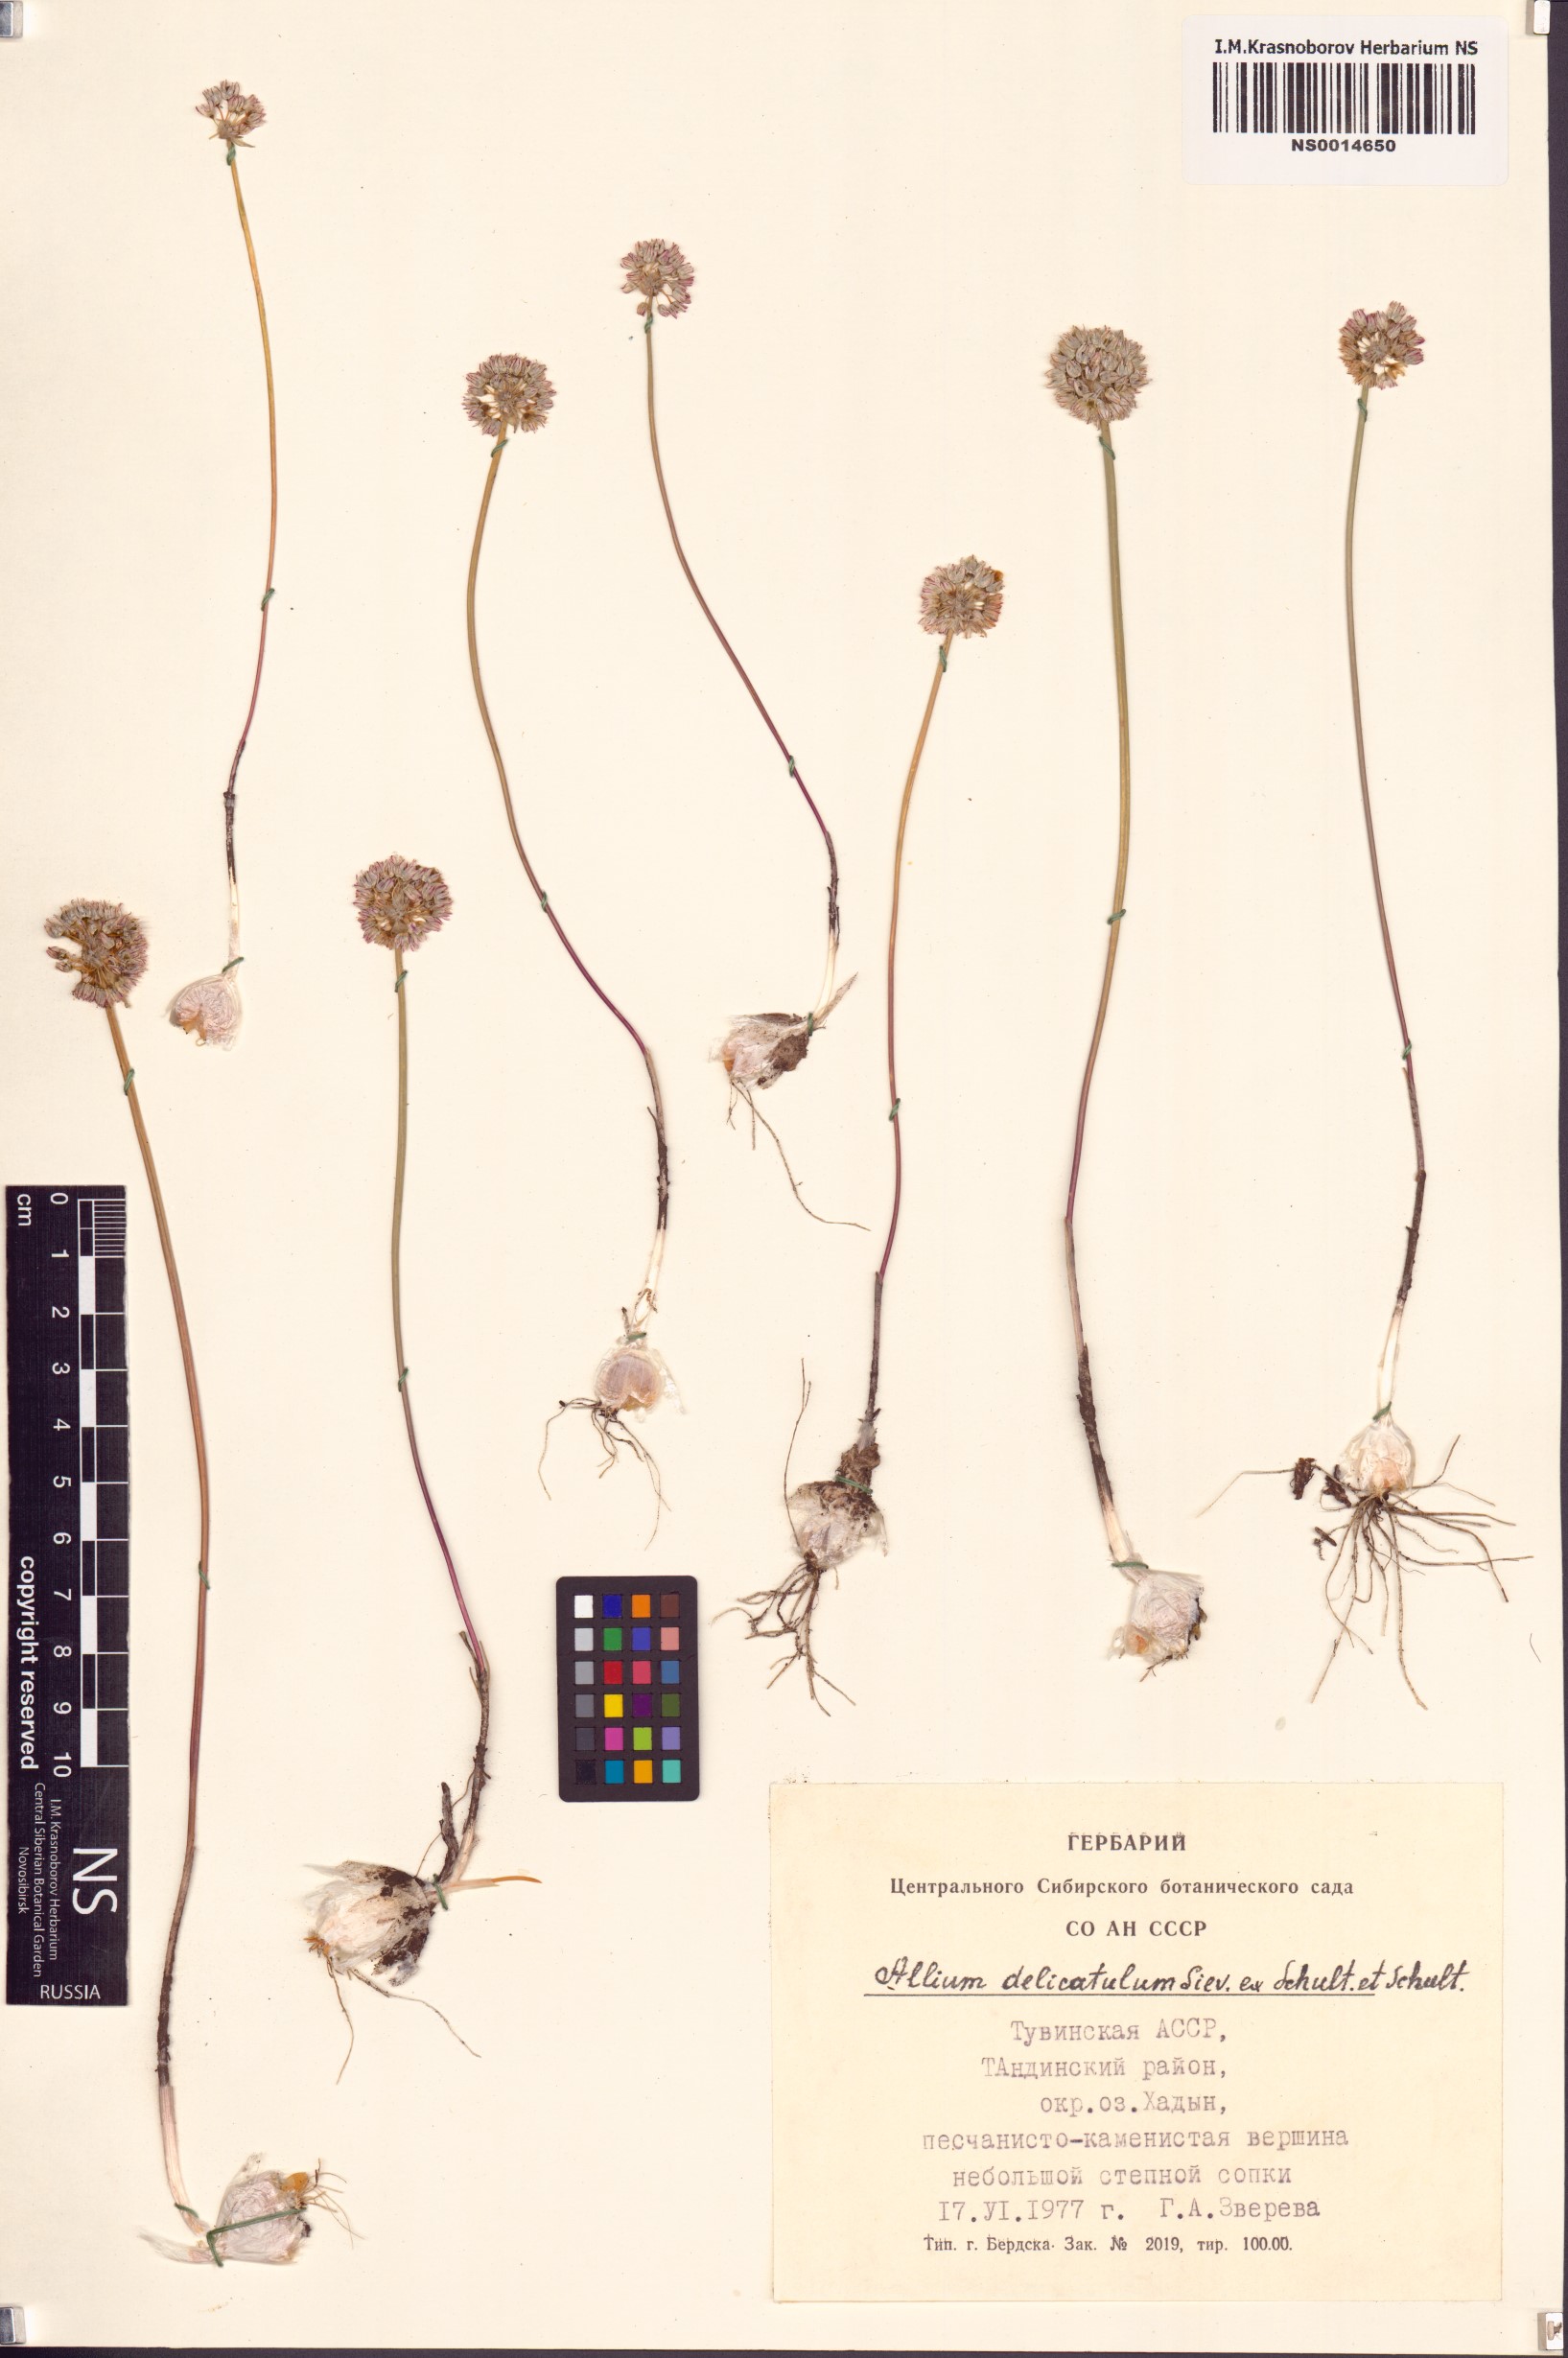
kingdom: Plantae
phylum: Tracheophyta
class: Liliopsida
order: Asparagales
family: Amaryllidaceae
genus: Allium
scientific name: Allium delicatulum
